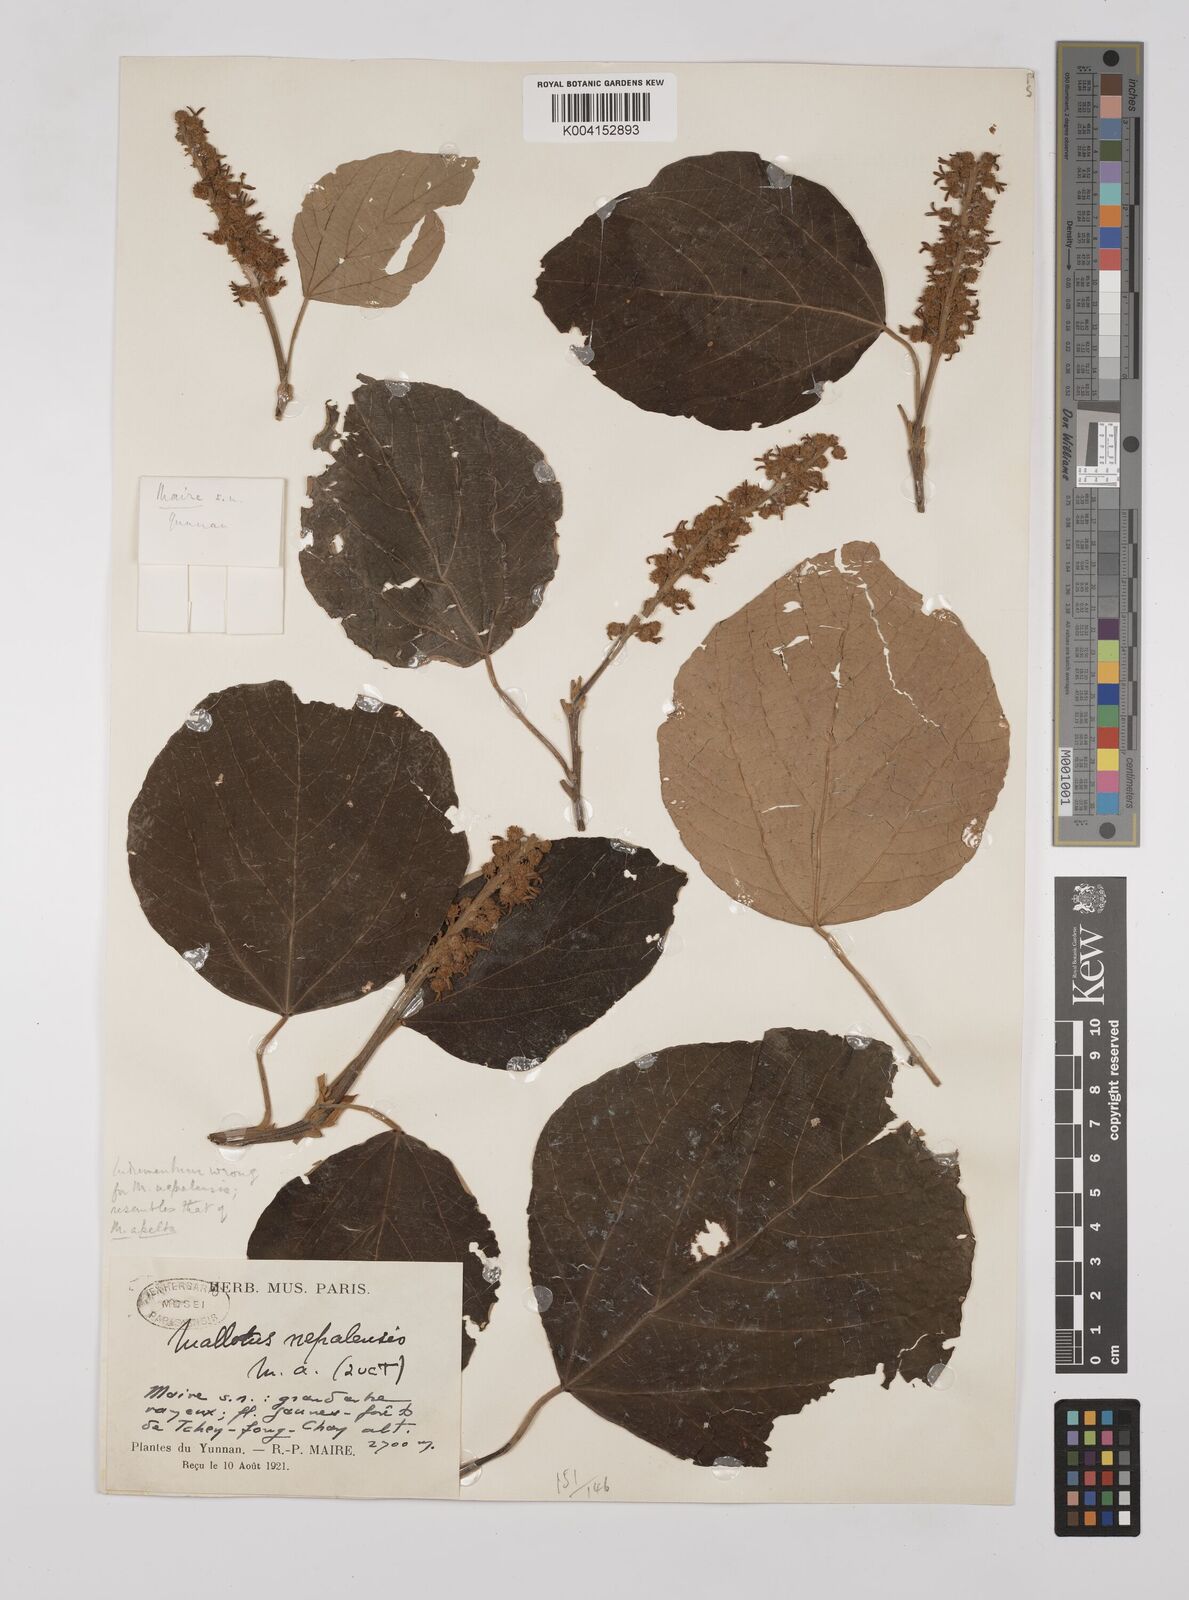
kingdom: Plantae
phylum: Tracheophyta
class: Magnoliopsida
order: Malpighiales
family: Euphorbiaceae
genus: Mallotus
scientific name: Mallotus oreophilus
